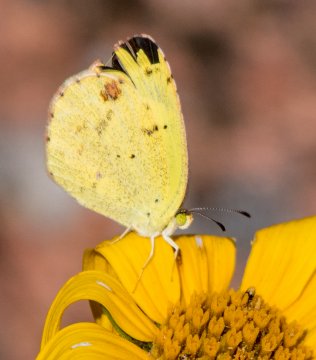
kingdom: Animalia
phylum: Arthropoda
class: Insecta
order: Lepidoptera
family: Pieridae
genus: Pyrisitia
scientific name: Pyrisitia lisa
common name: Little Yellow
